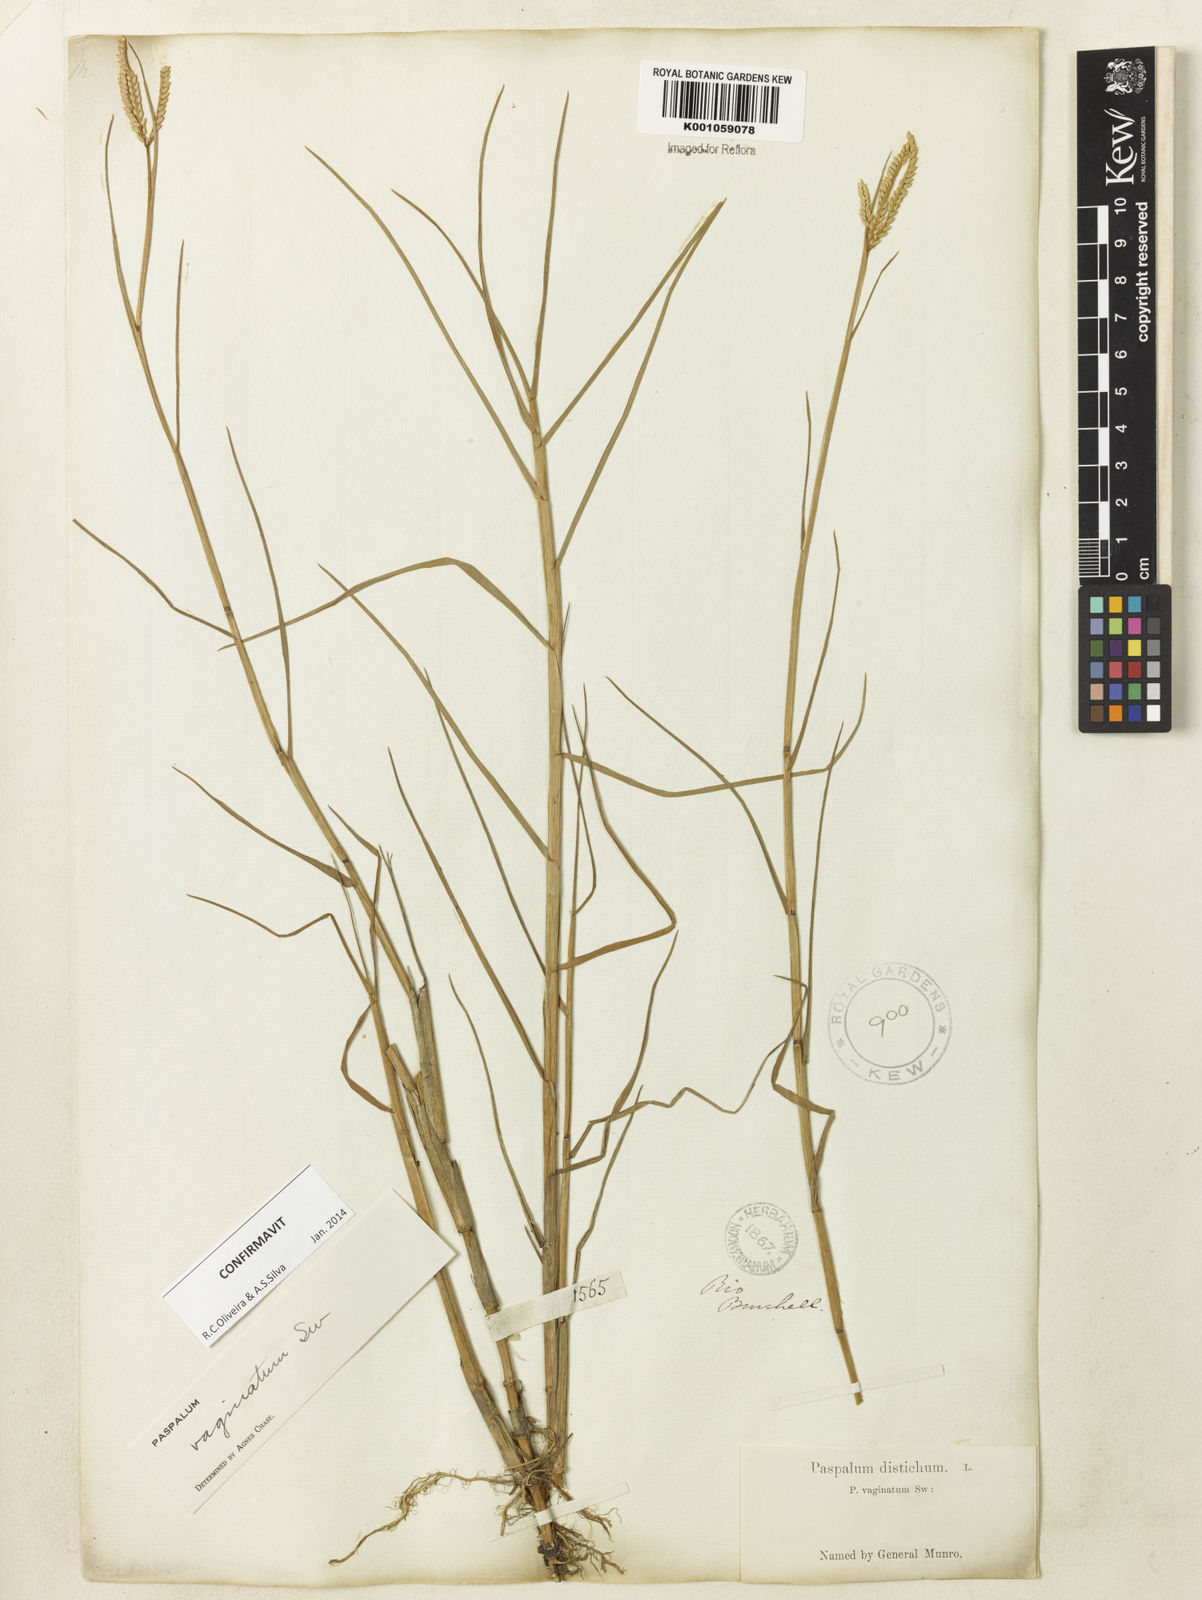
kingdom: Plantae
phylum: Tracheophyta
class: Liliopsida
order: Poales
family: Poaceae
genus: Paspalum
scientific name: Paspalum vaginatum
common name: Seashore paspalum
